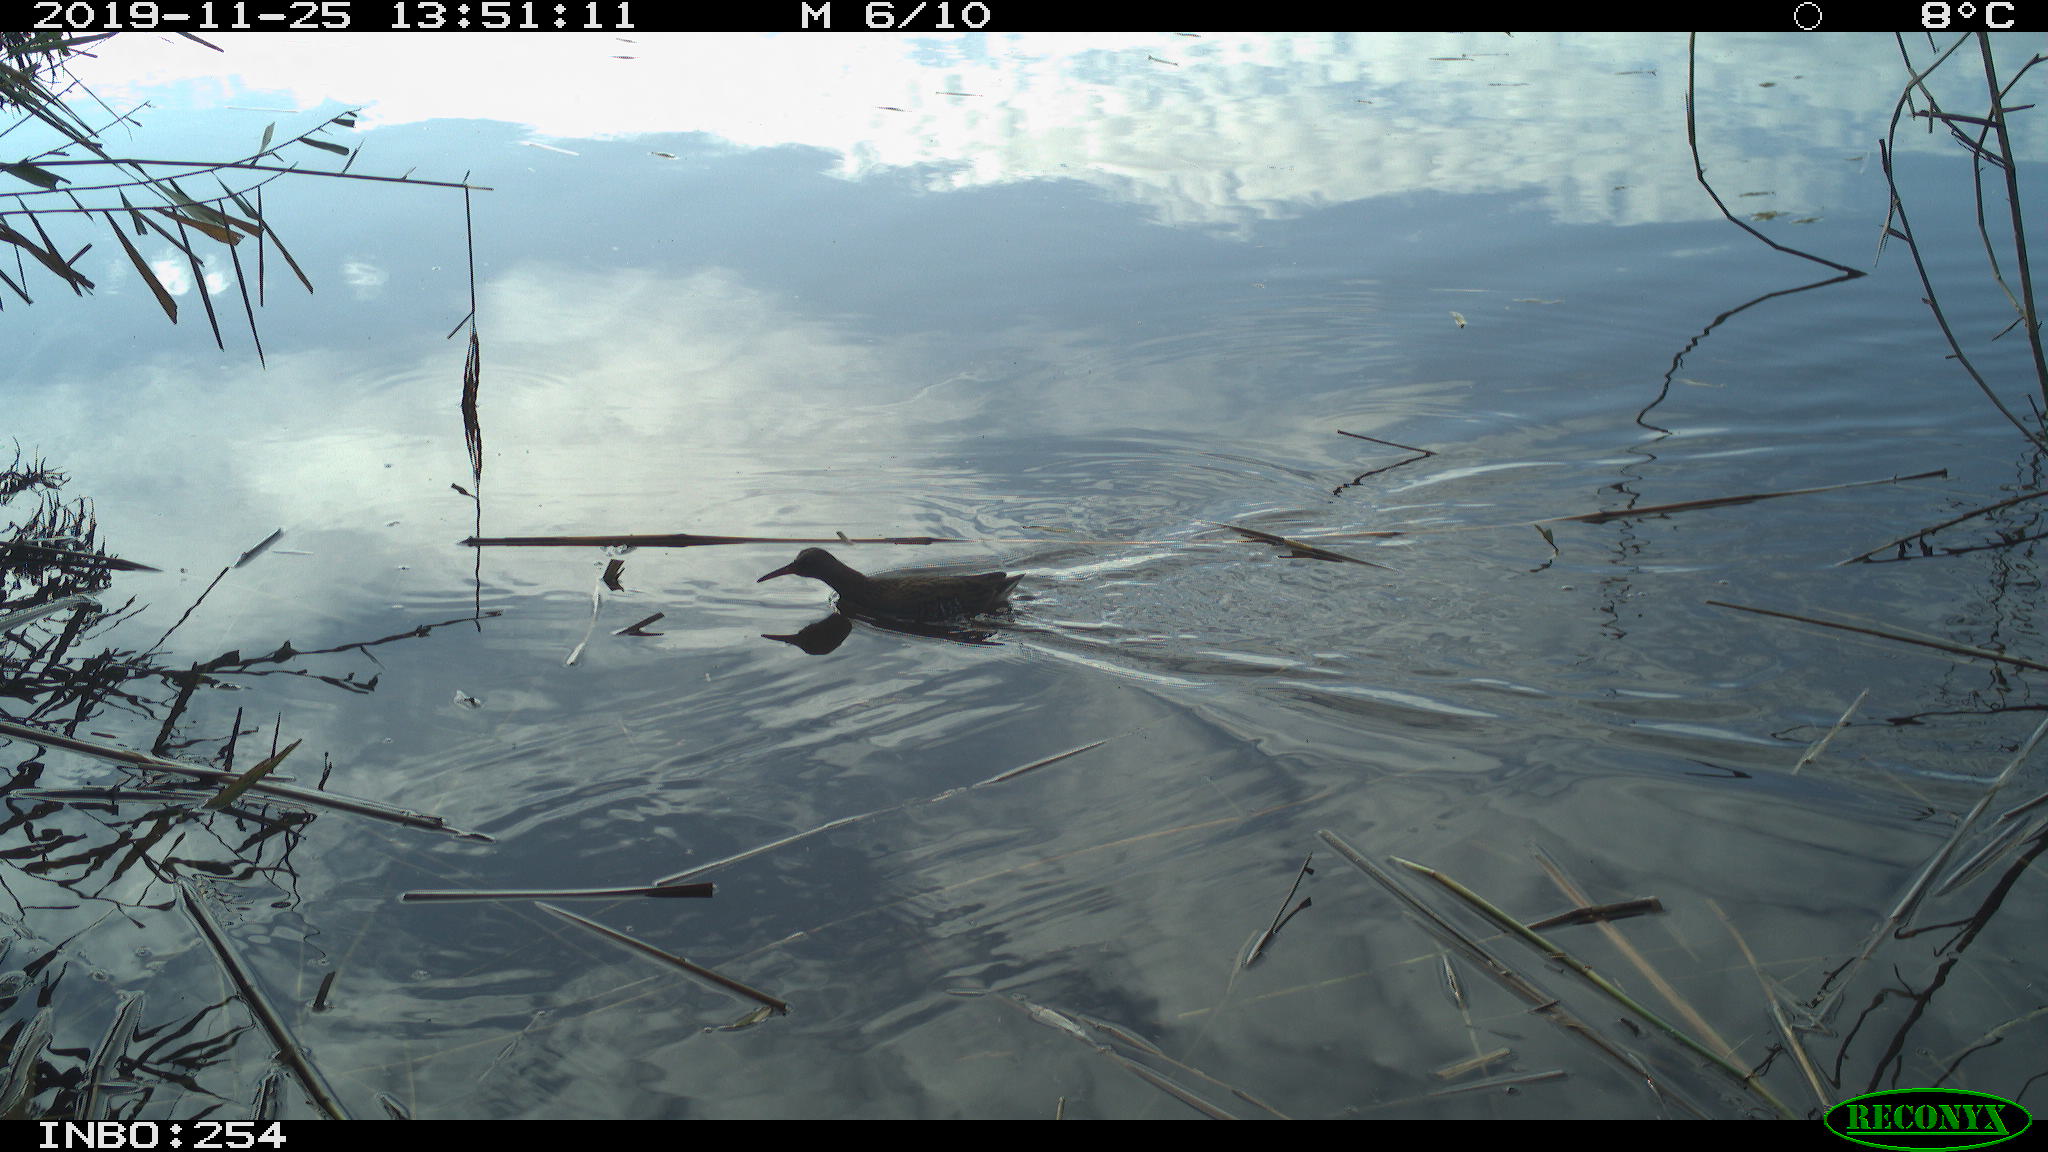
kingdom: Animalia
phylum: Chordata
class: Aves
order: Gruiformes
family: Rallidae
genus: Gallinula
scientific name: Gallinula chloropus
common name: Common moorhen
